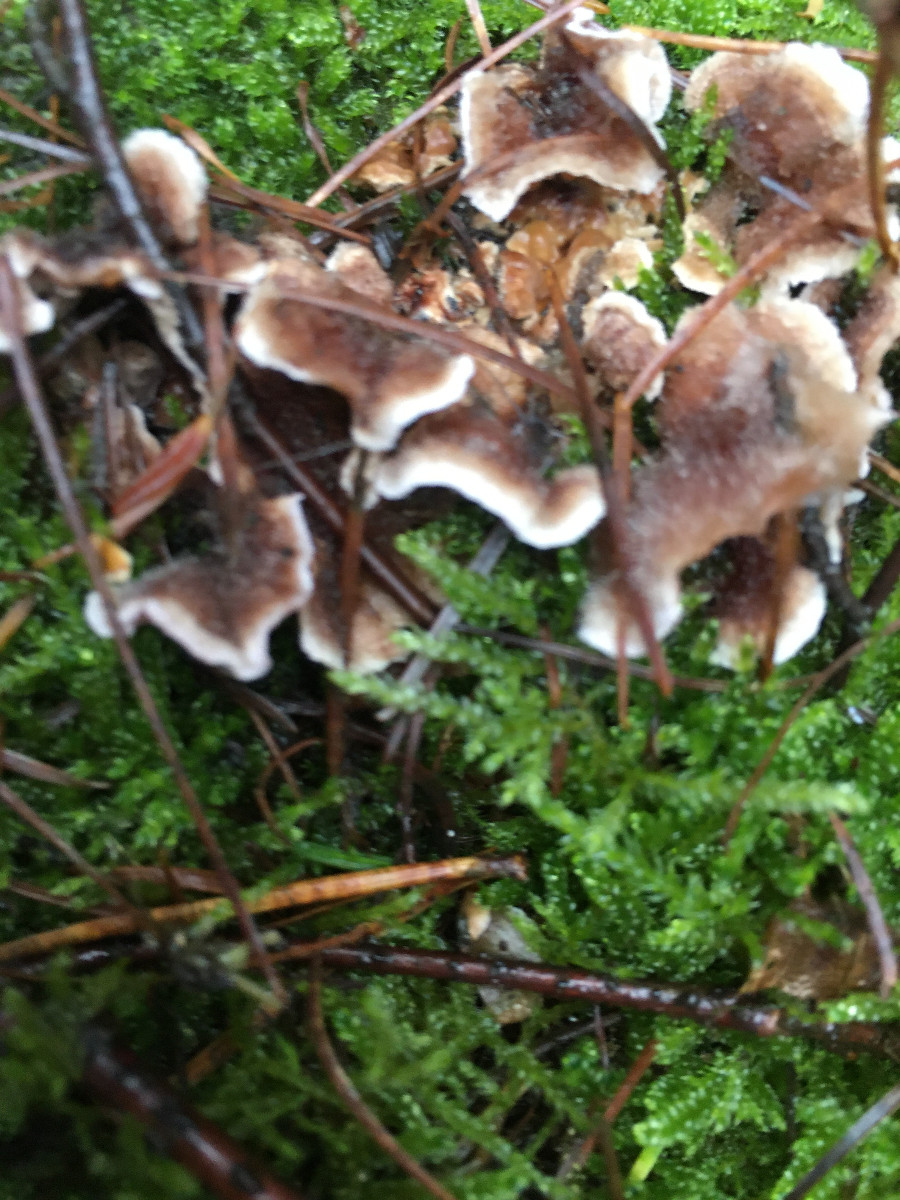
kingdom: Fungi
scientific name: Fungi
